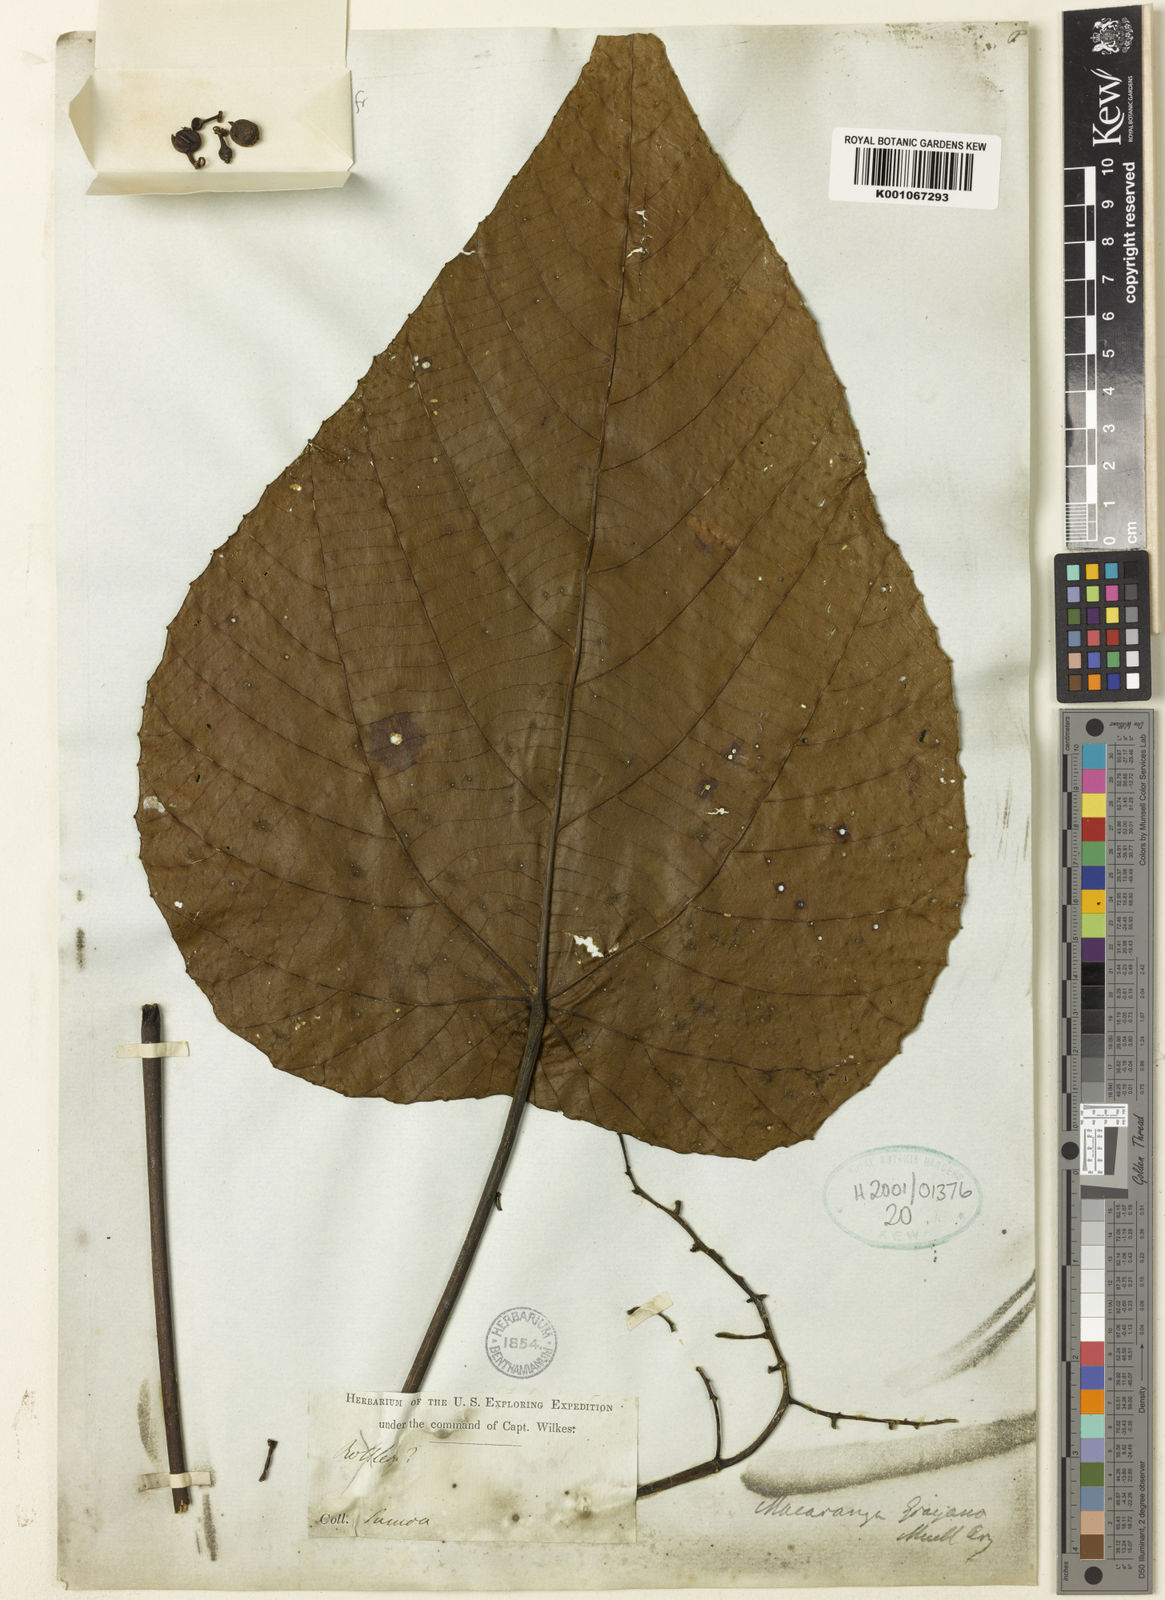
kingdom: Plantae
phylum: Tracheophyta
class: Magnoliopsida
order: Malpighiales
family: Euphorbiaceae
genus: Macaranga
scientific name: Macaranga
